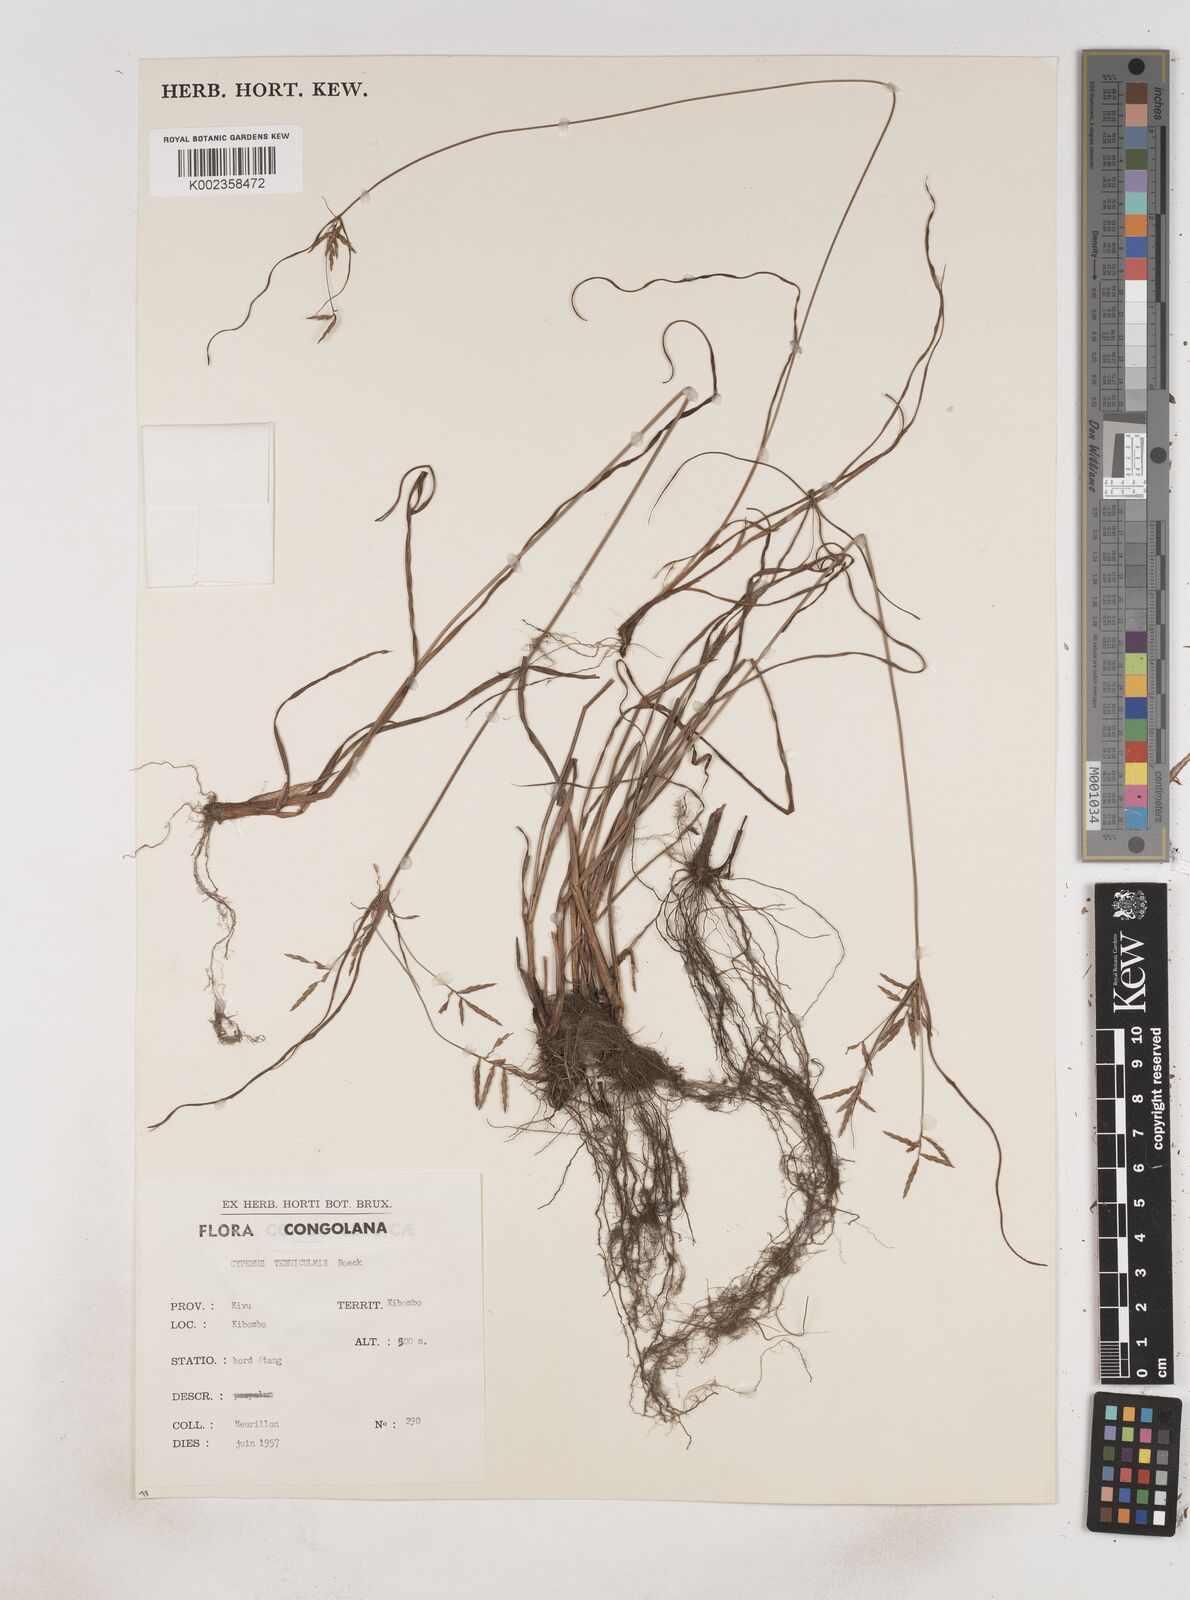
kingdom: Plantae
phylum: Tracheophyta
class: Liliopsida
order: Poales
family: Cyperaceae
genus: Cyperus
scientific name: Cyperus dilatatus
